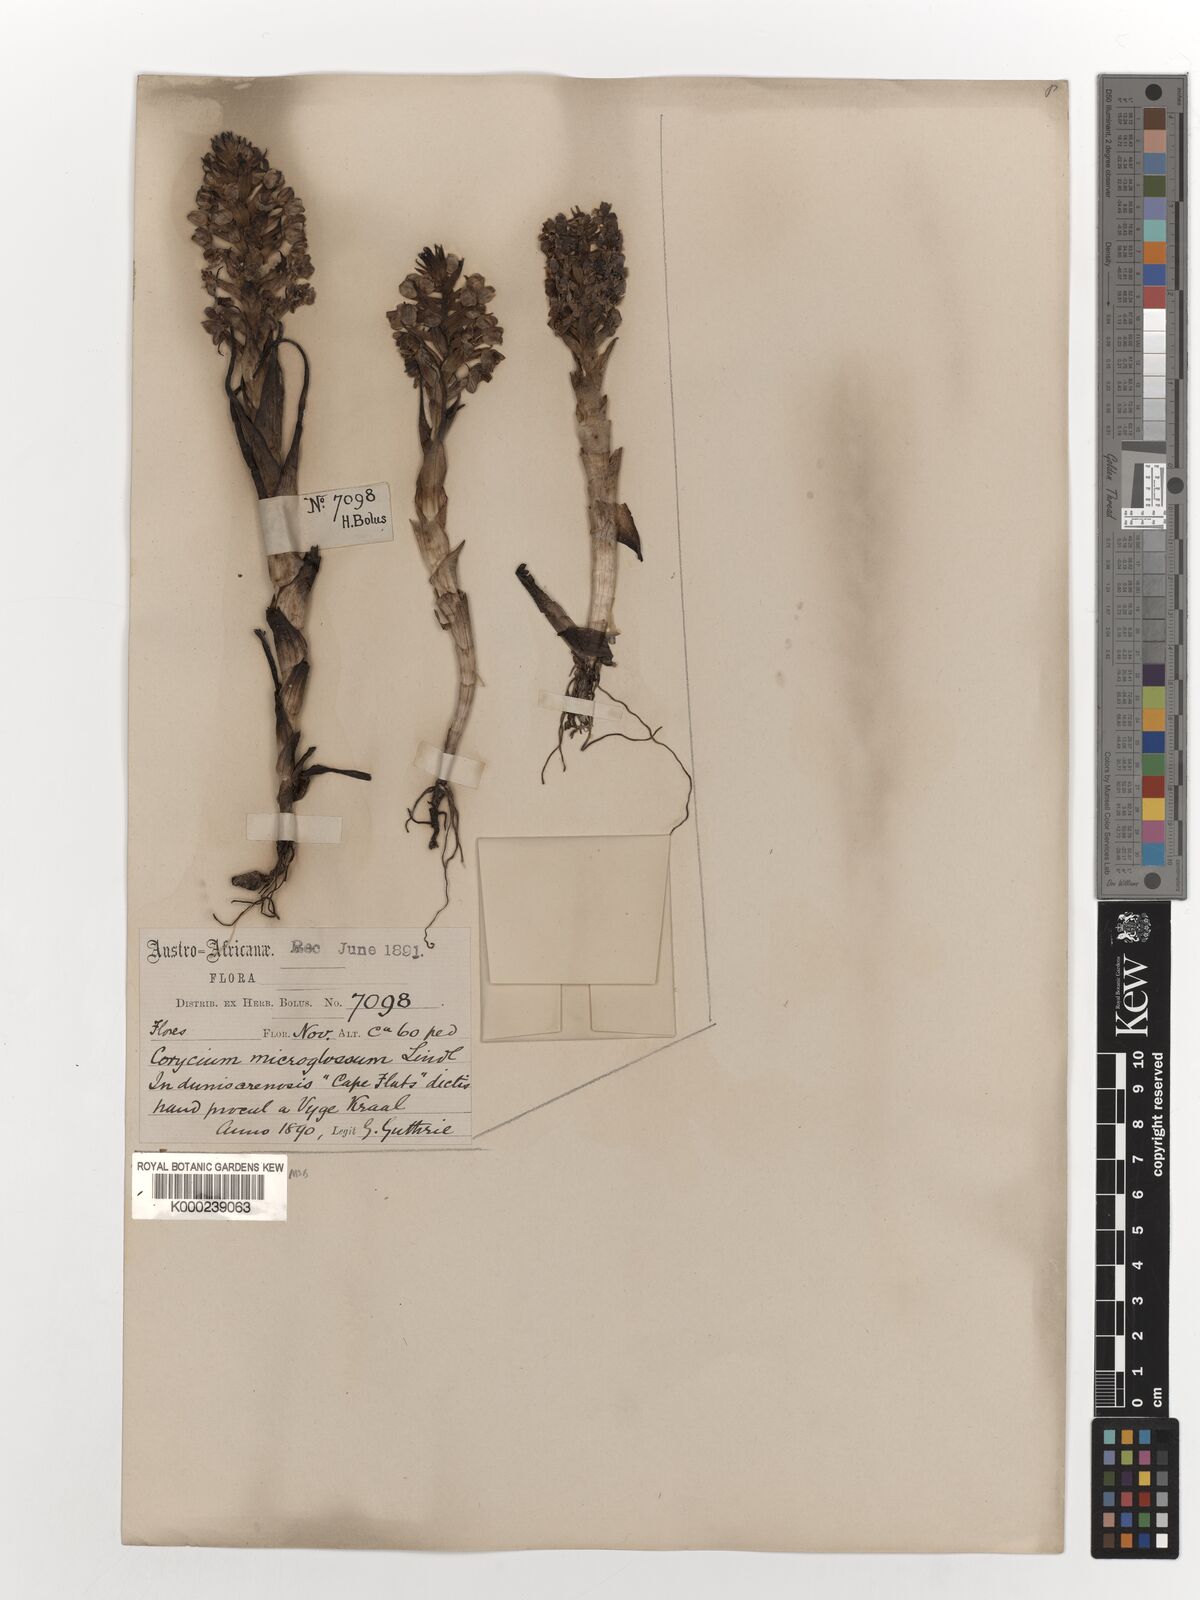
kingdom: Plantae
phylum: Tracheophyta
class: Liliopsida
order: Asparagales
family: Orchidaceae
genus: Corycium
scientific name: Corycium microglossum
